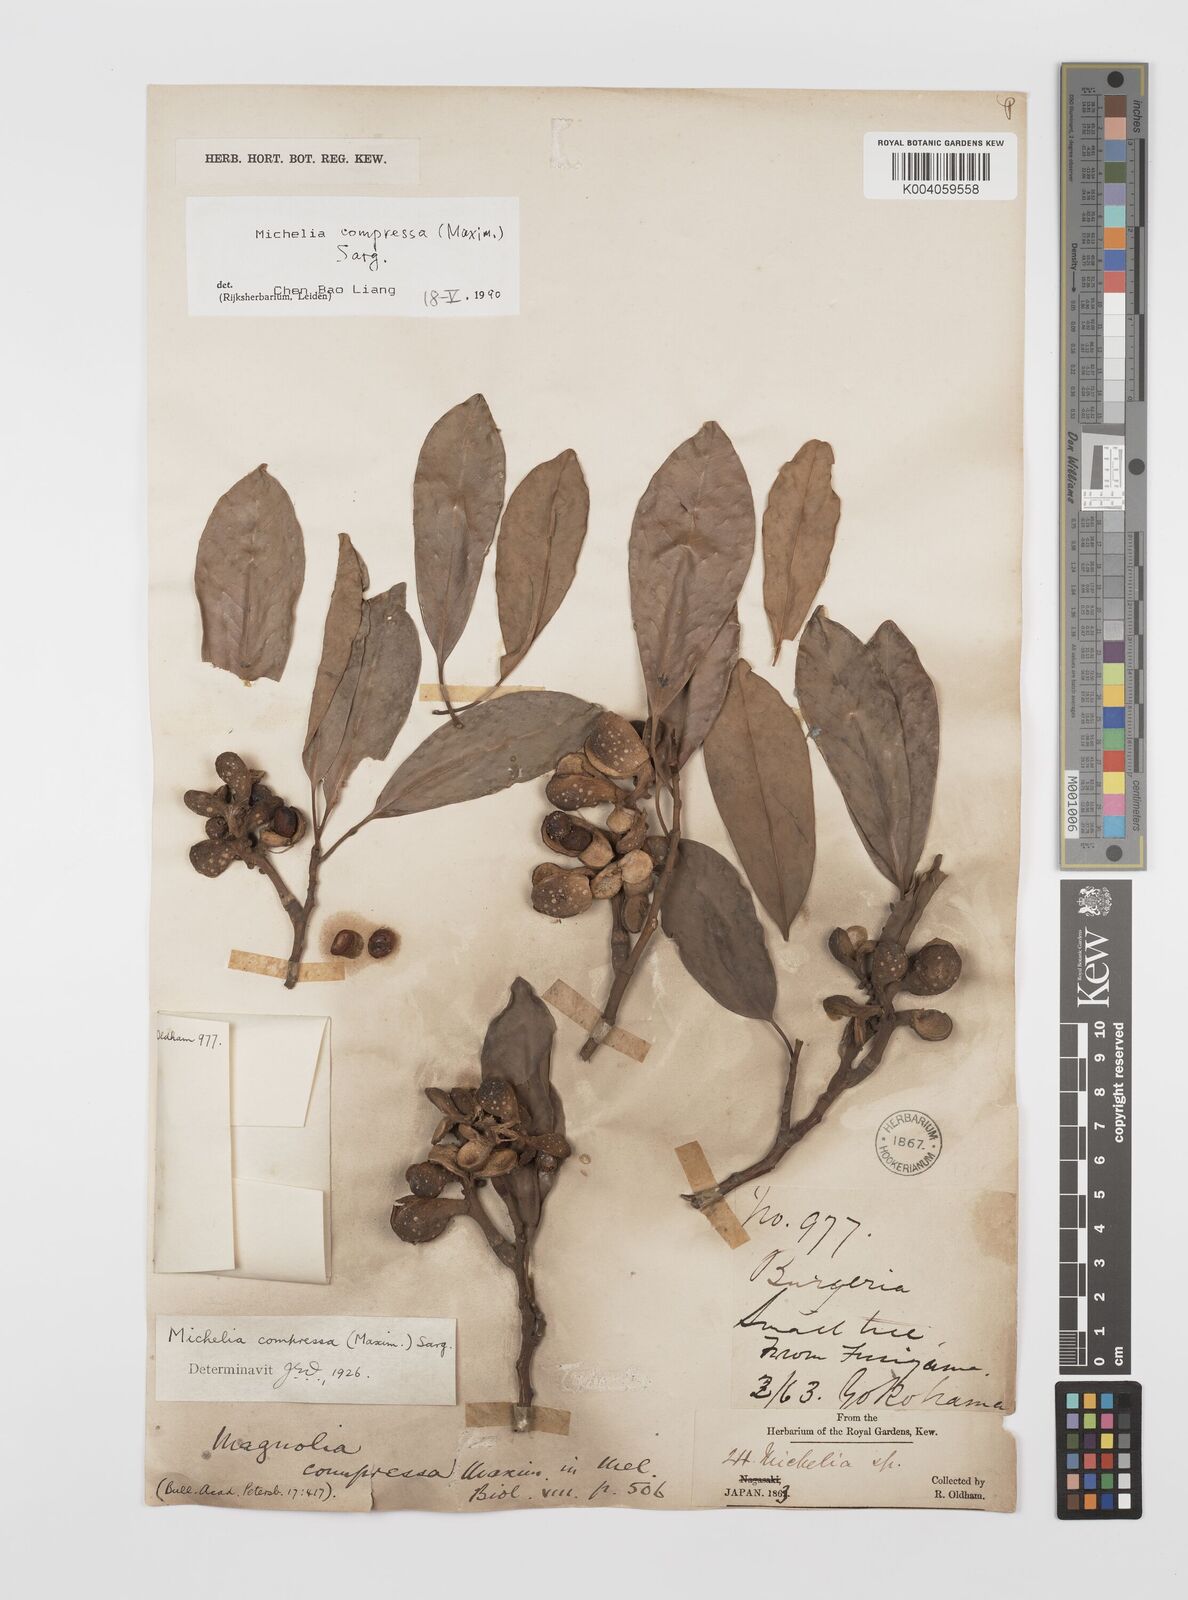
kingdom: Plantae
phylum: Tracheophyta
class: Magnoliopsida
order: Magnoliales
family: Magnoliaceae
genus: Magnolia
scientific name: Magnolia compressa
